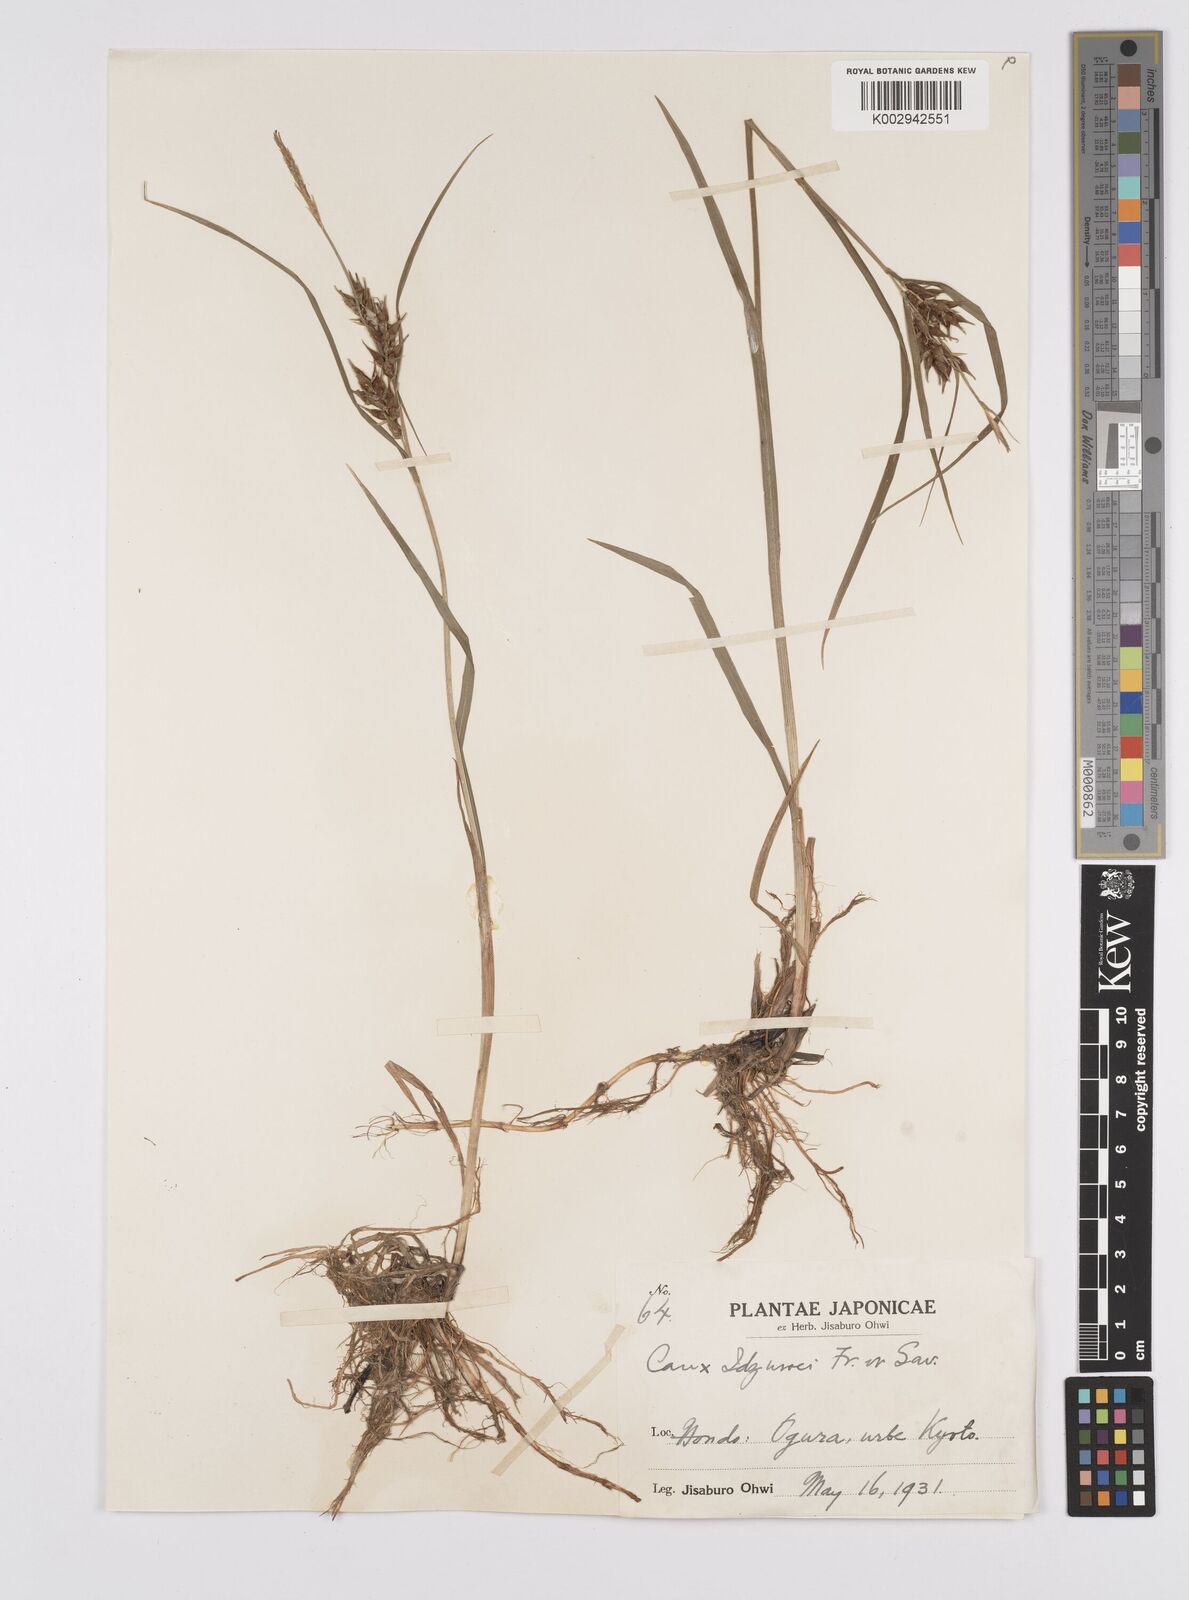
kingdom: Plantae
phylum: Tracheophyta
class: Liliopsida
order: Poales
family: Cyperaceae
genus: Carex
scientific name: Carex idzuroei
